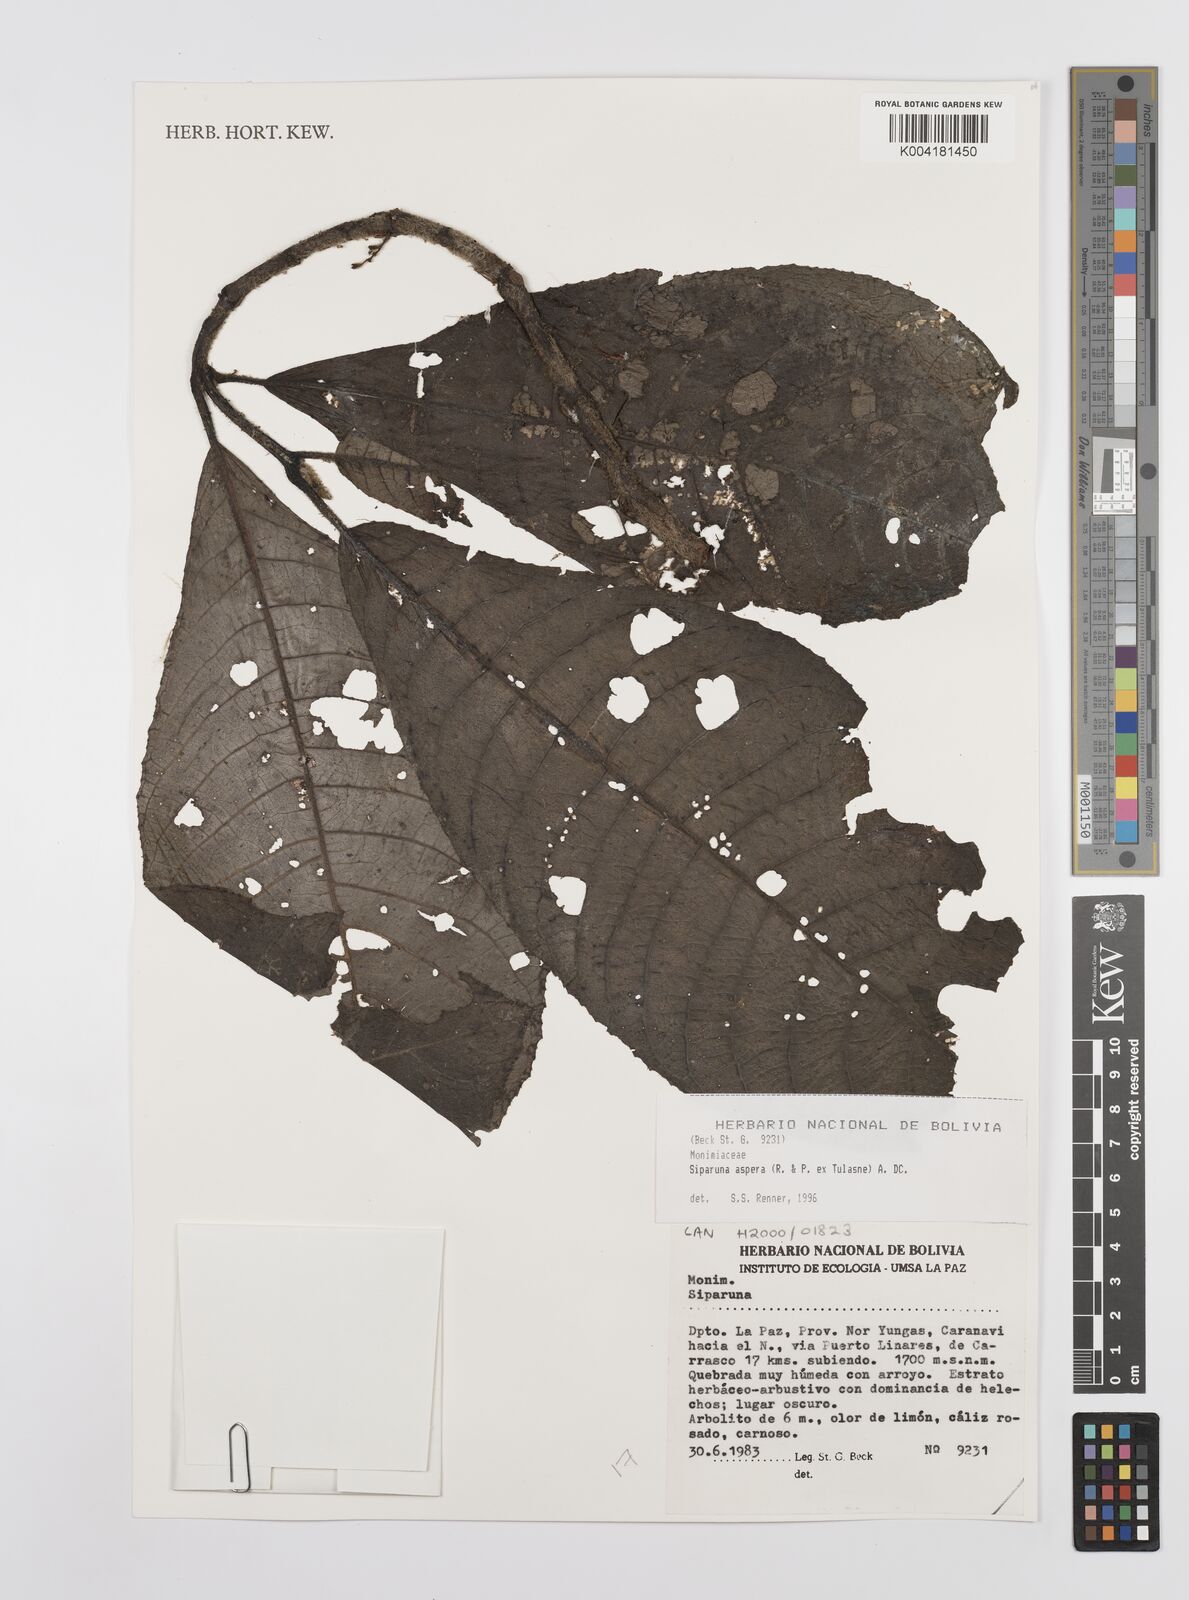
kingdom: Plantae
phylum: Tracheophyta
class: Magnoliopsida
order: Laurales
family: Siparunaceae
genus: Siparuna
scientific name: Siparuna aspera
